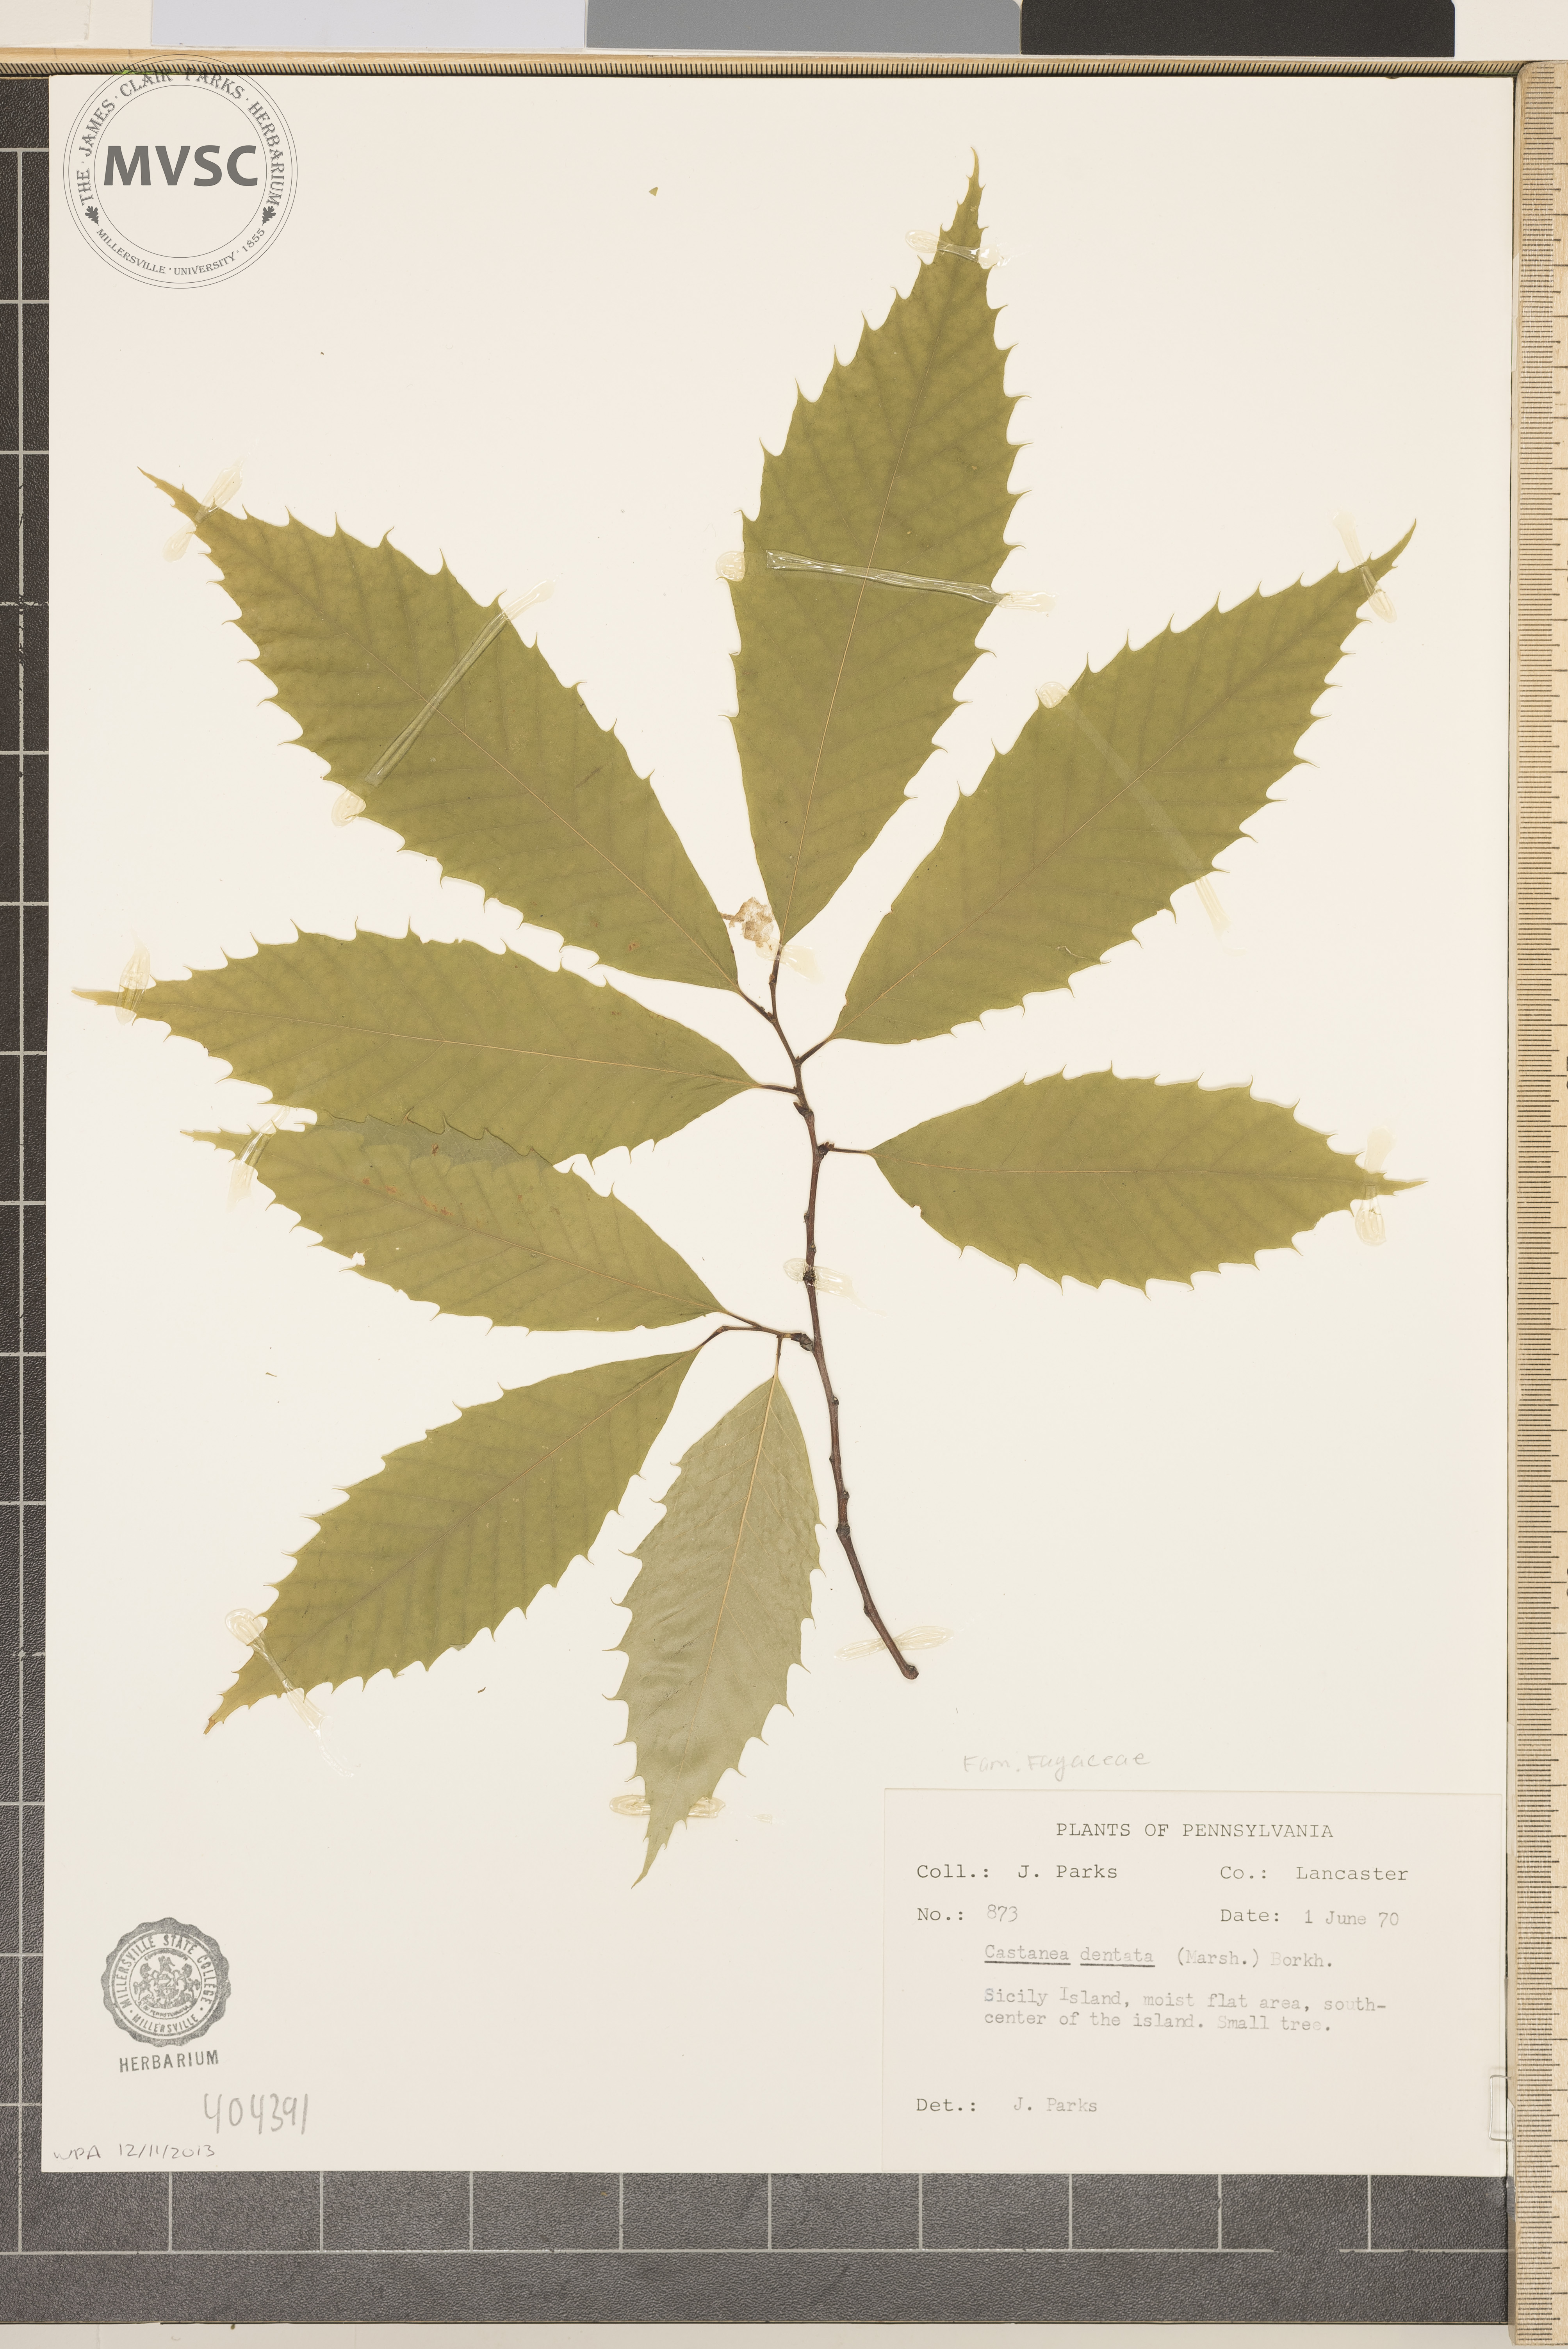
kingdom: Plantae
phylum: Tracheophyta
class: Magnoliopsida
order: Fagales
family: Fagaceae
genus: Castanea
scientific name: Castanea dentata
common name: American chestnut
